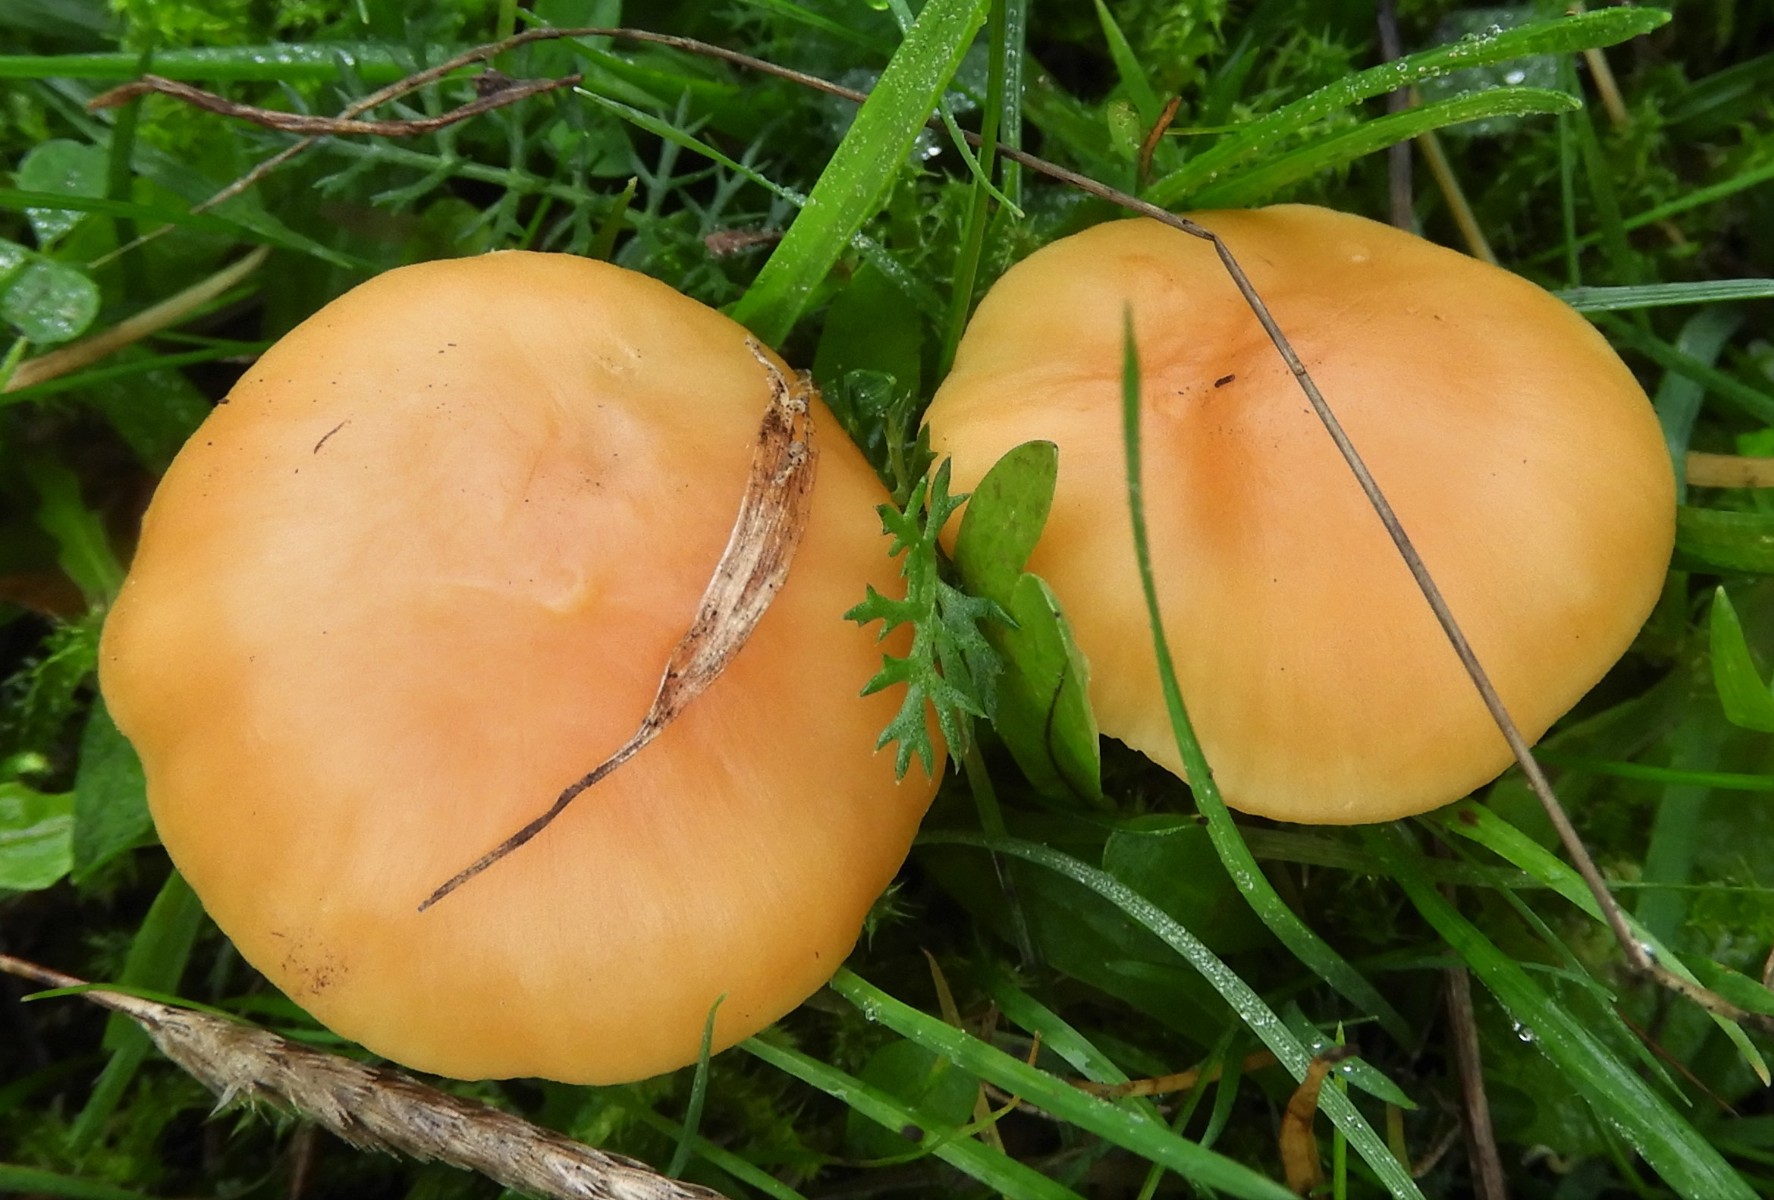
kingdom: Fungi
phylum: Basidiomycota
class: Agaricomycetes
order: Agaricales
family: Hygrophoraceae
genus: Cuphophyllus
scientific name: Cuphophyllus pratensis
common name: eng-vokshat
